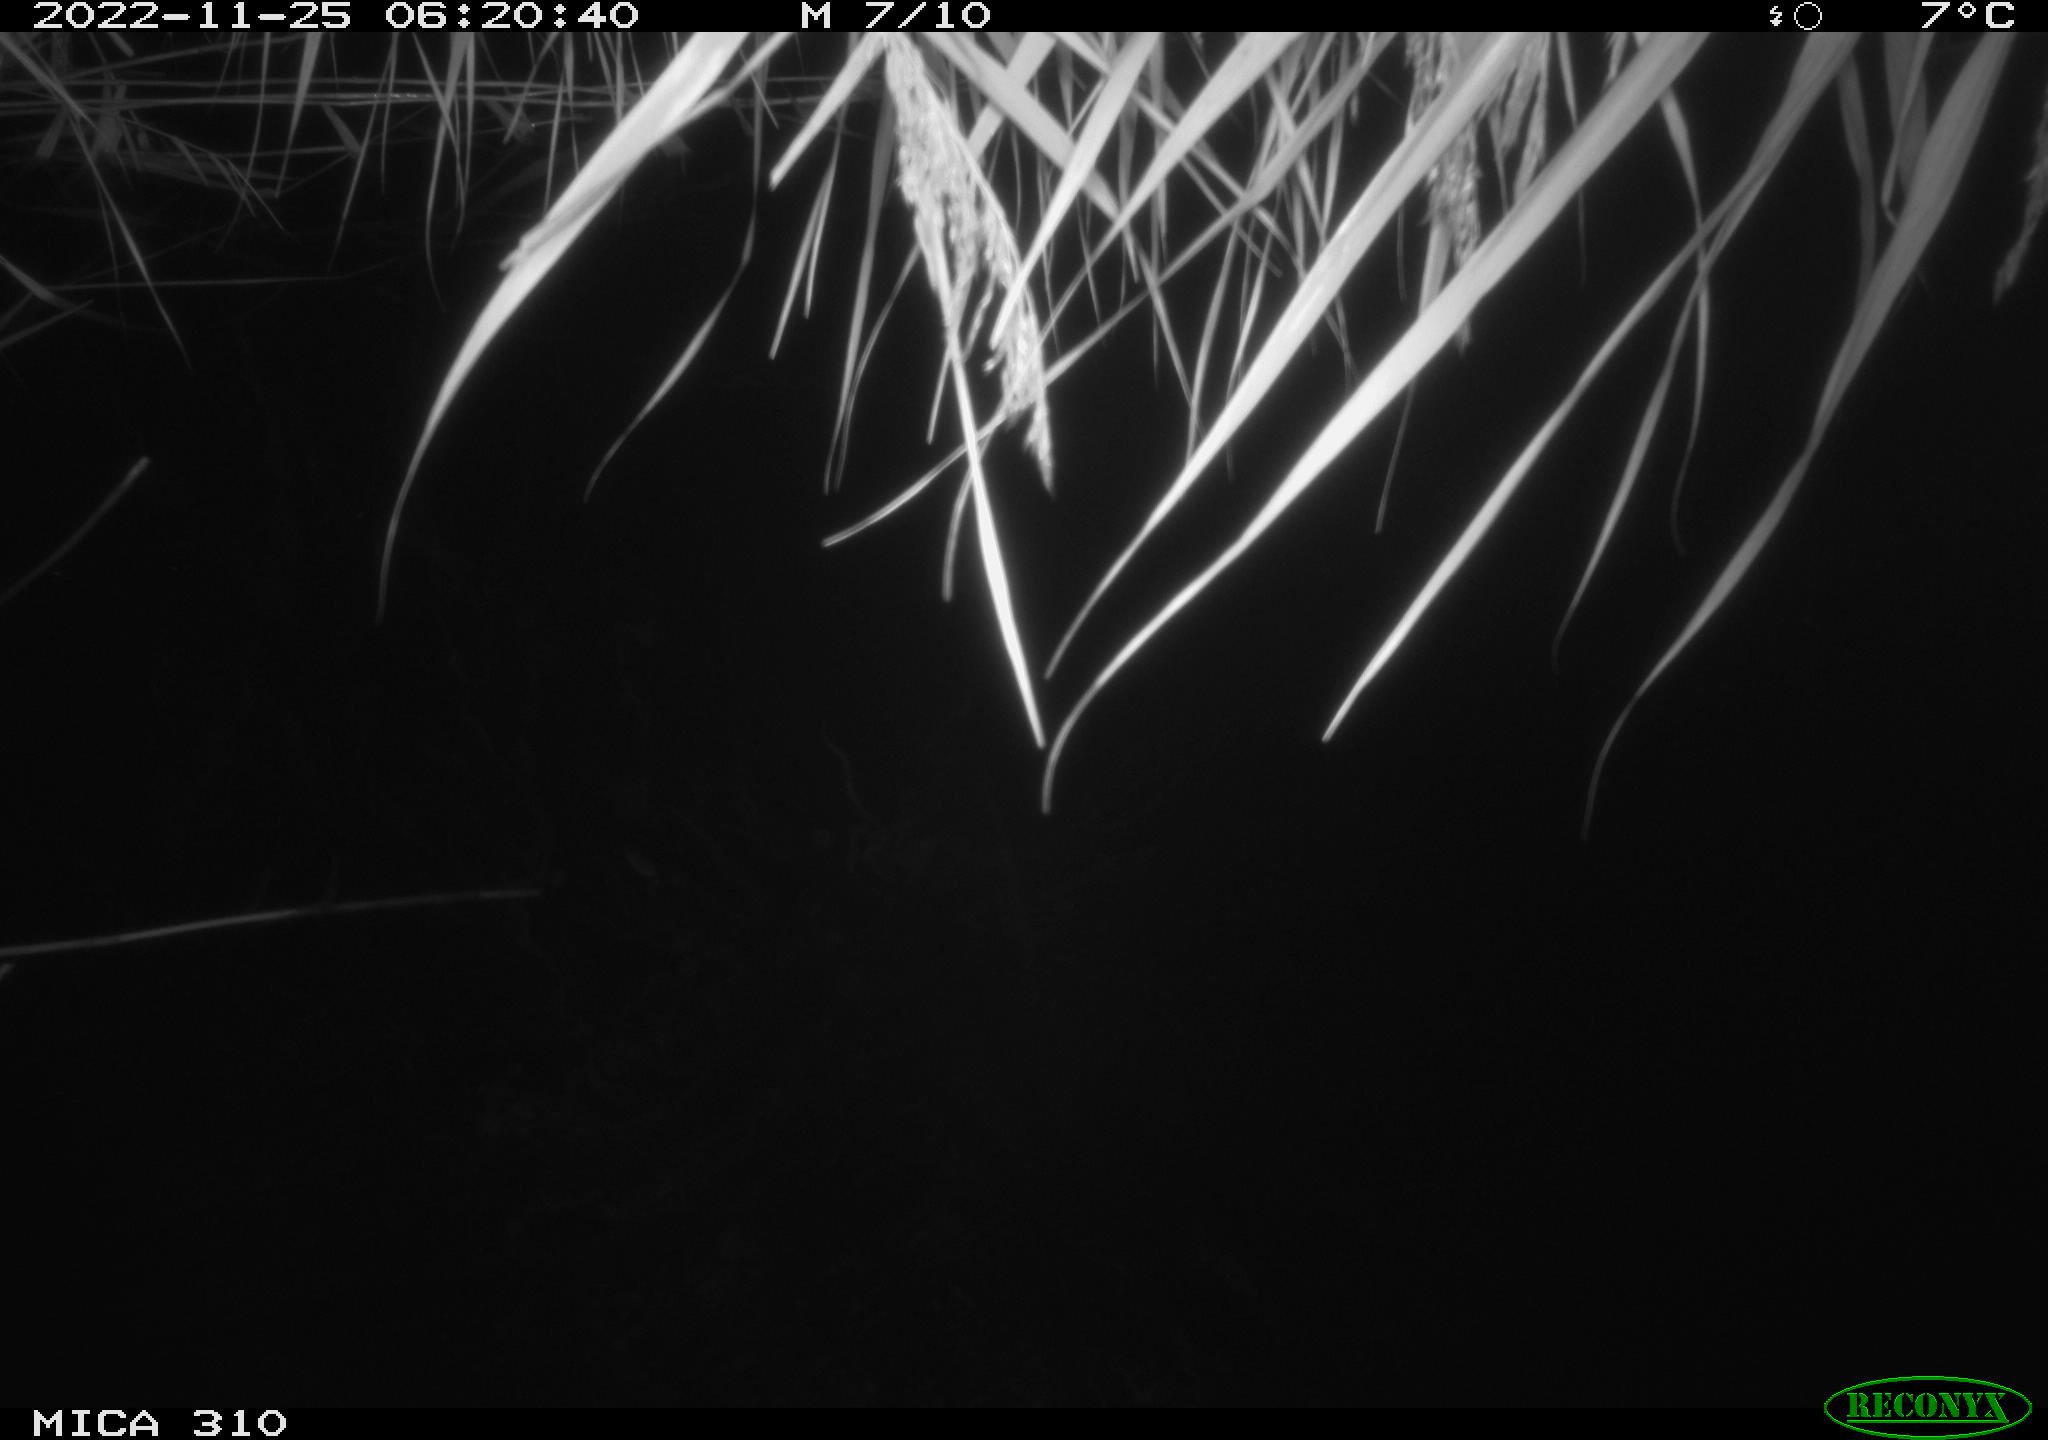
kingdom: Animalia
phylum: Chordata
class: Mammalia
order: Rodentia
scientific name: Rodentia
